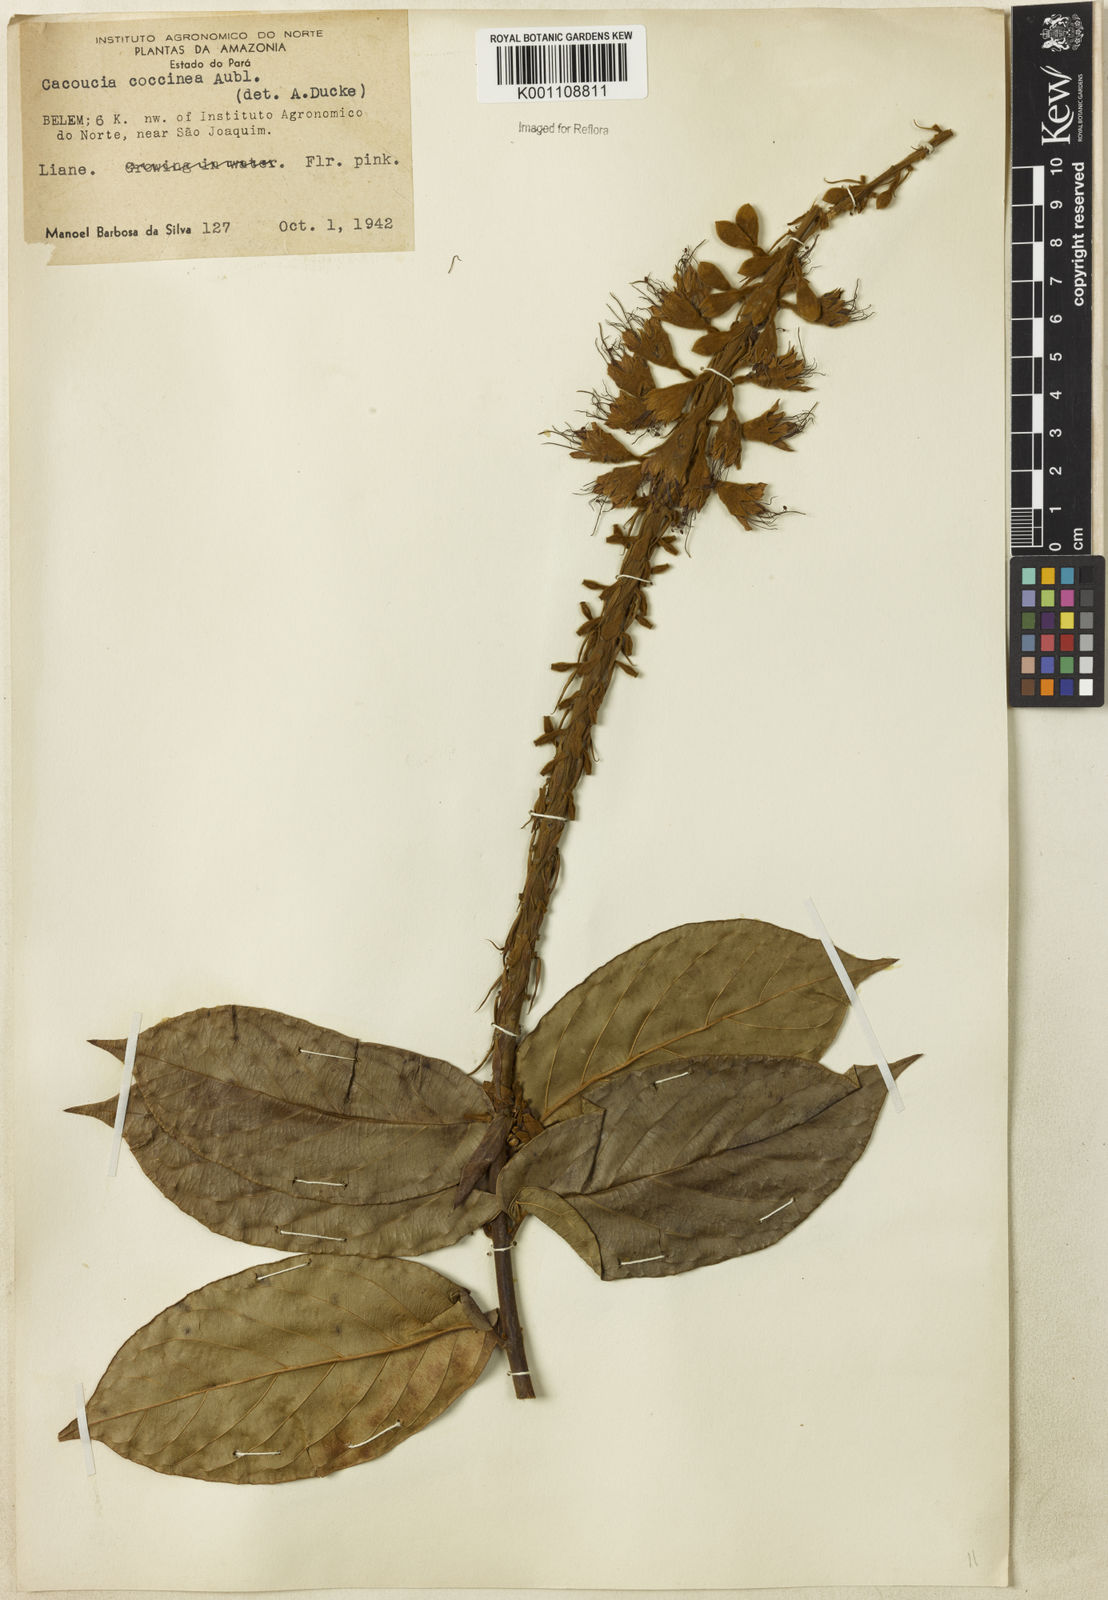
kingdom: Plantae
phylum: Tracheophyta
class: Magnoliopsida
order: Myrtales
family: Combretaceae
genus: Combretum
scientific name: Combretum
